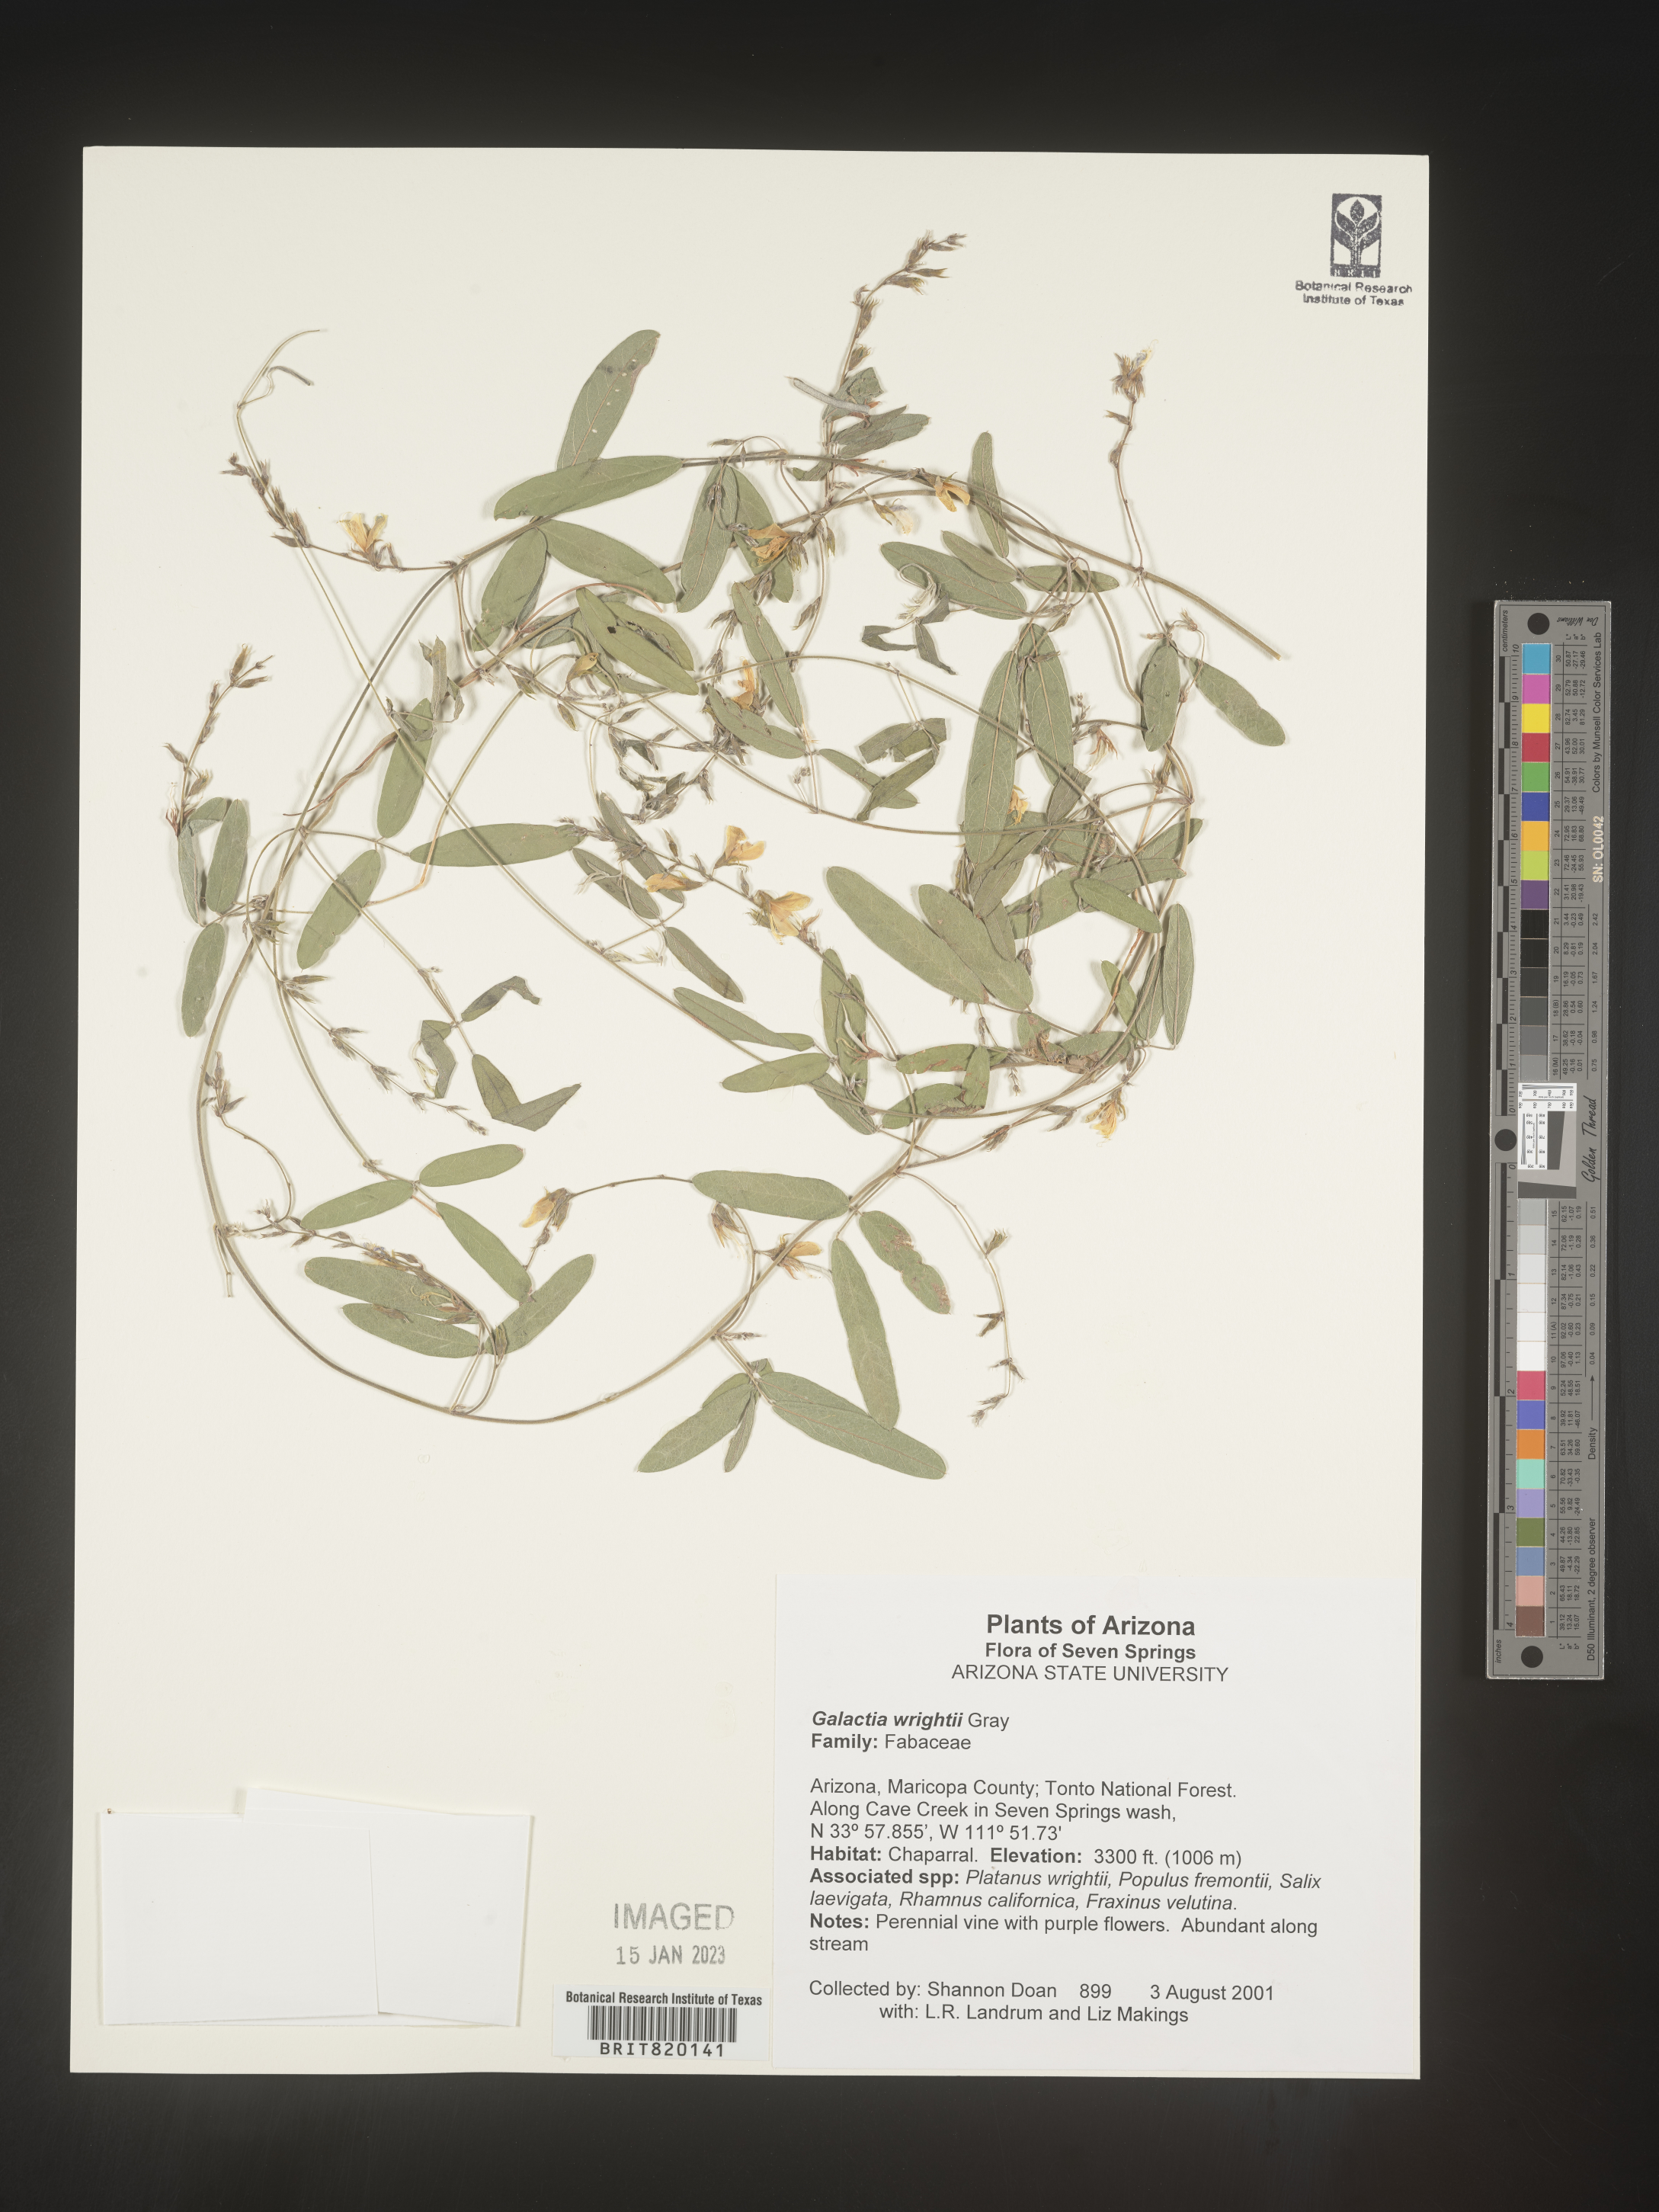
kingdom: Plantae
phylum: Tracheophyta
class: Magnoliopsida
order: Fabales
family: Fabaceae
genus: Galactia
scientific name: Galactia wrightii
